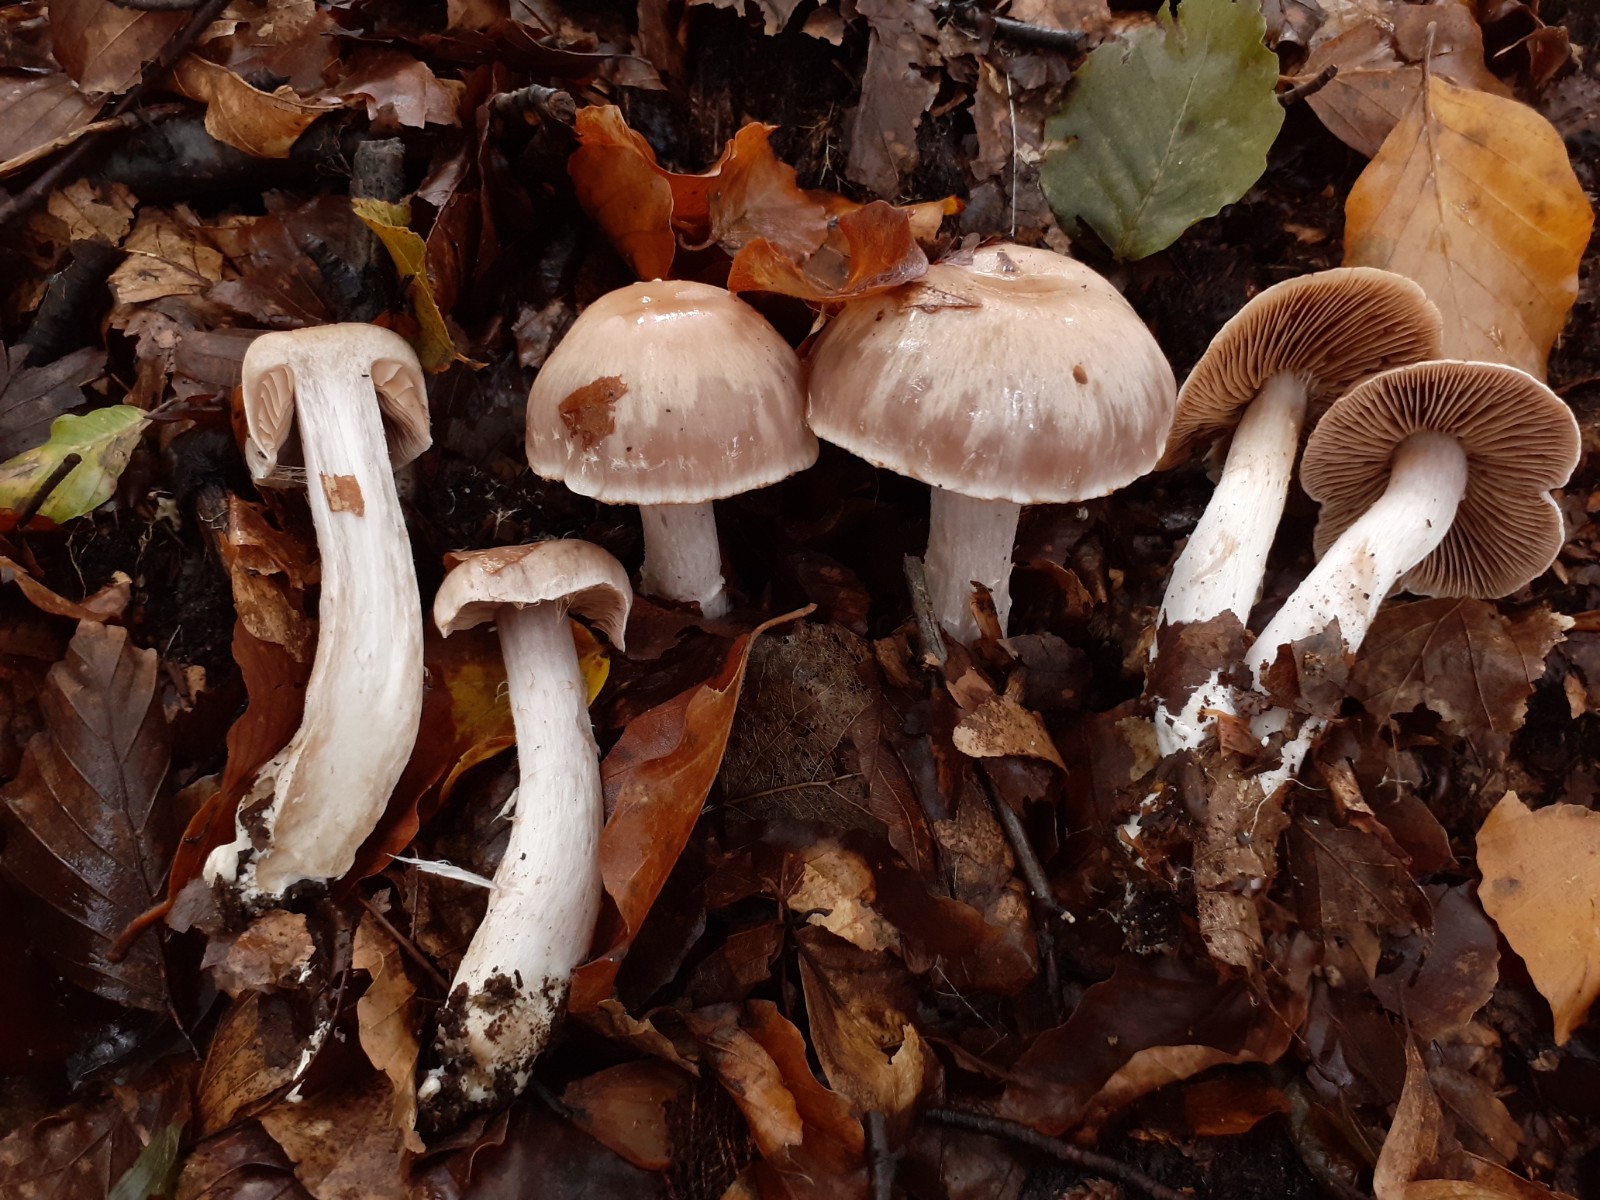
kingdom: Fungi
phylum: Basidiomycota
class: Agaricomycetes
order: Agaricales
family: Cortinariaceae
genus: Cortinarius
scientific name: Cortinarius turgidus
